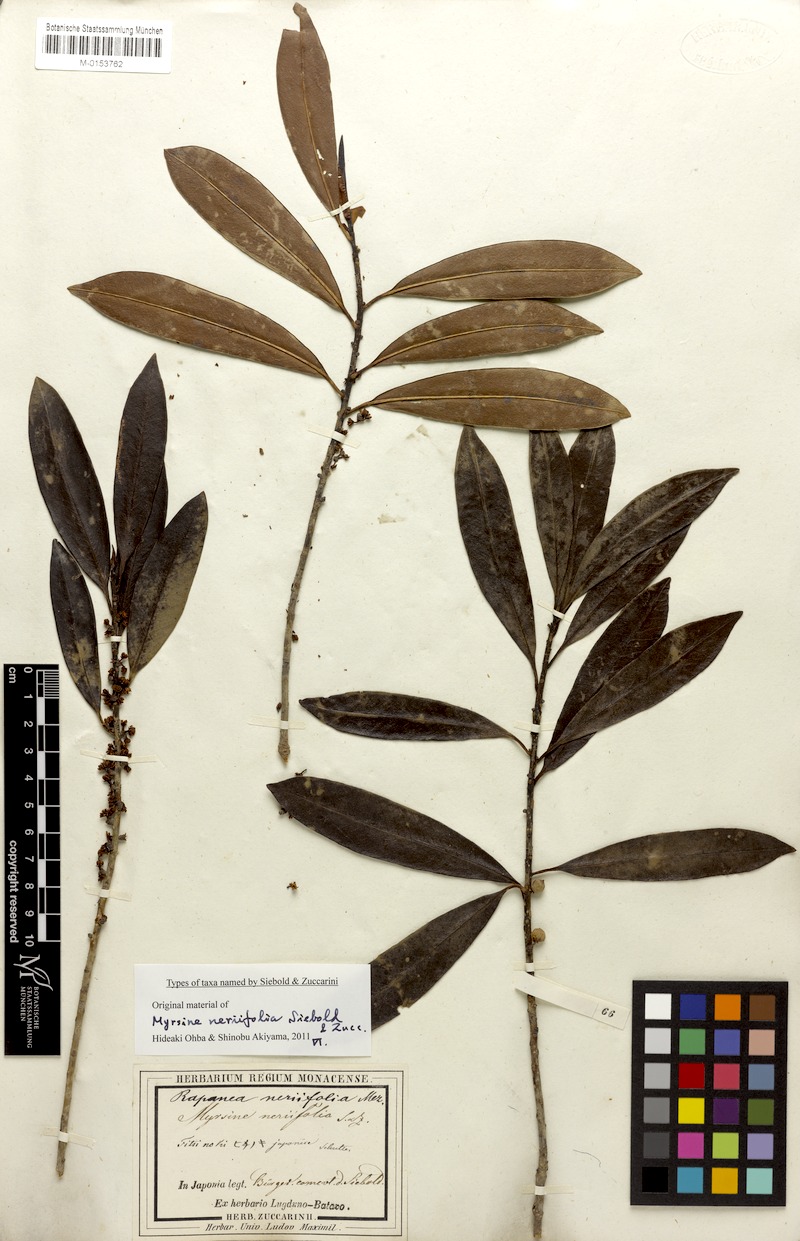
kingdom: Plantae
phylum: Tracheophyta
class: Magnoliopsida
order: Ericales
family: Primulaceae
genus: Myrsine
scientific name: Myrsine seguinii
